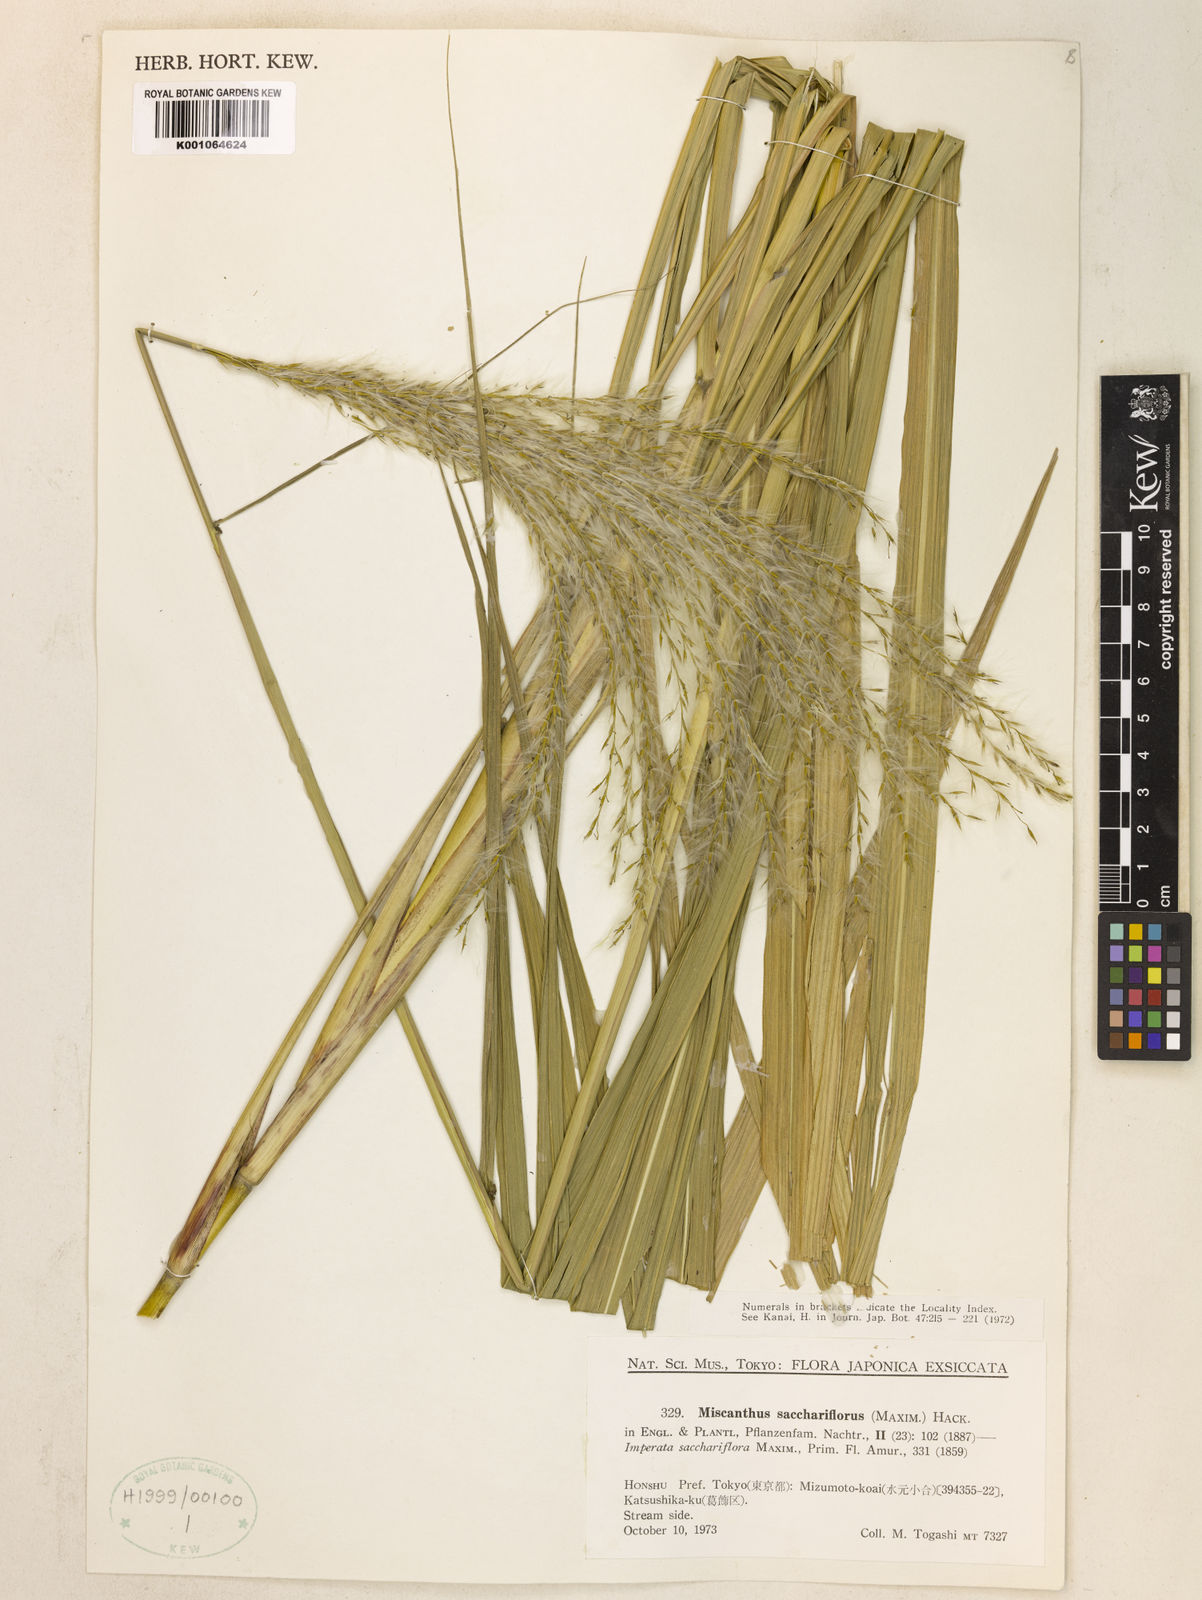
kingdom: Plantae
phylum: Tracheophyta
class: Liliopsida
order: Poales
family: Poaceae
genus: Miscanthus
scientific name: Miscanthus
